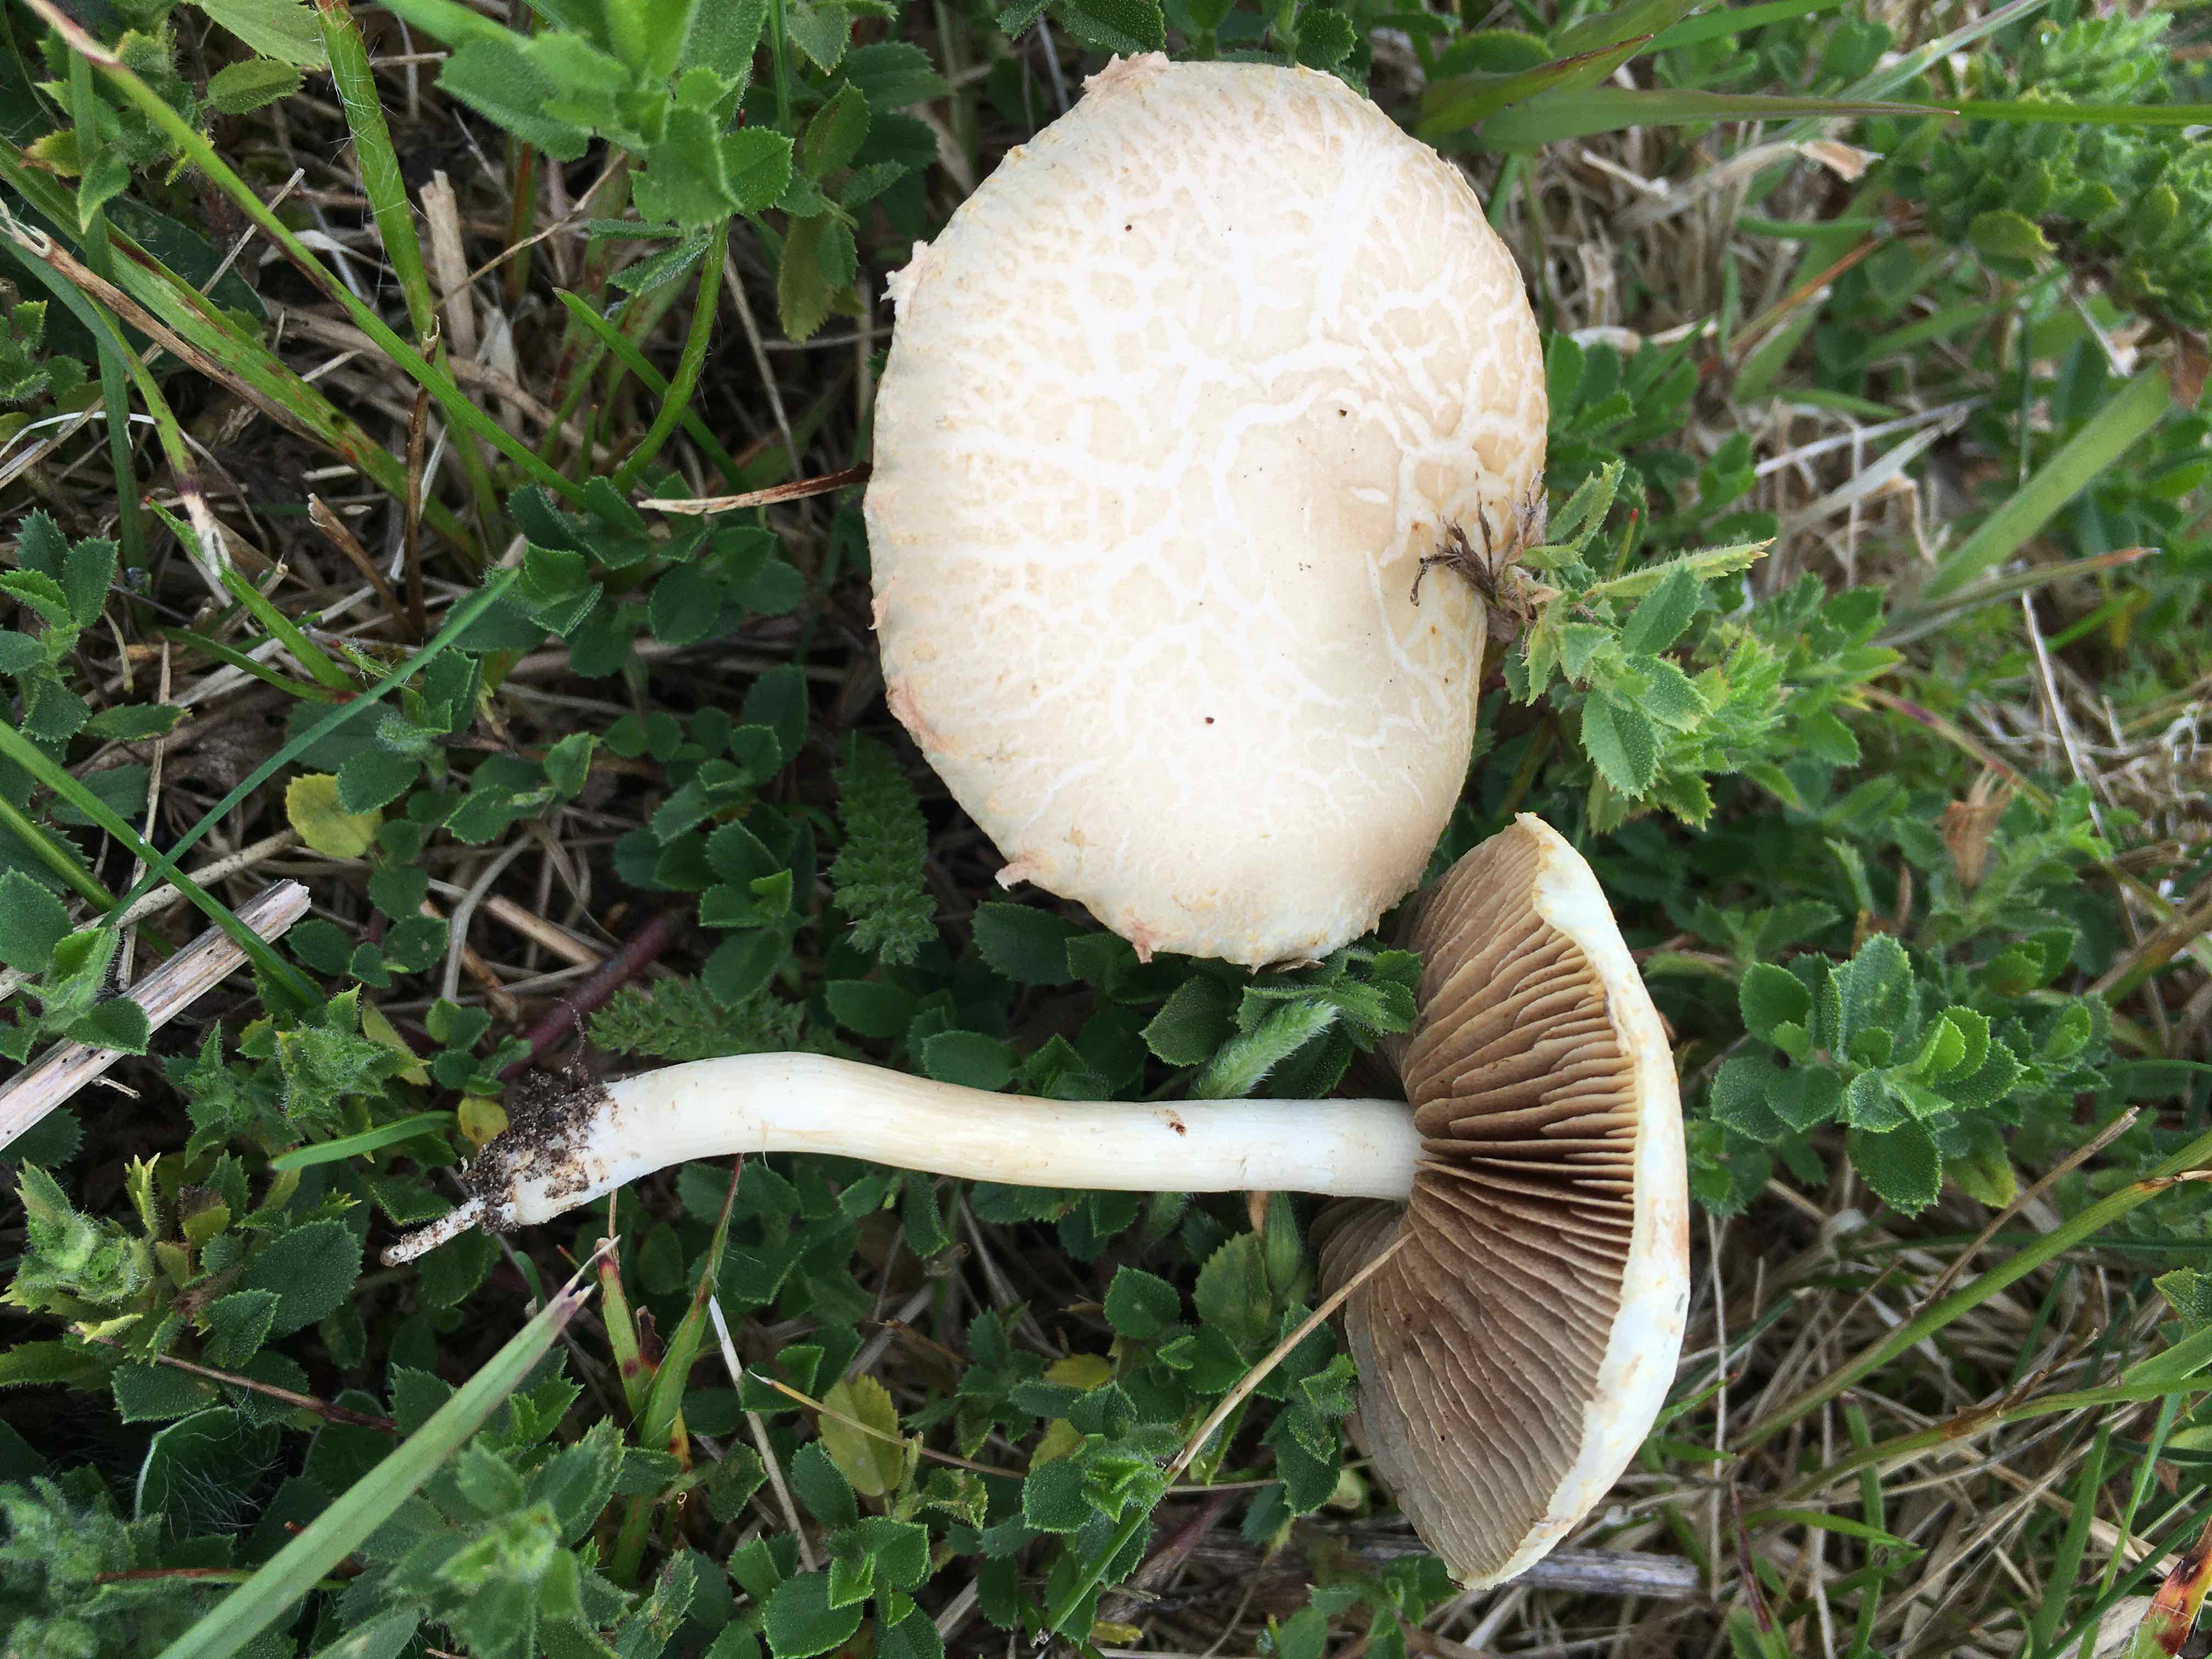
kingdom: Fungi
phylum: Basidiomycota
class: Agaricomycetes
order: Agaricales
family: Strophariaceae
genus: Agrocybe
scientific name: Agrocybe dura
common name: fastkødet agerhat
